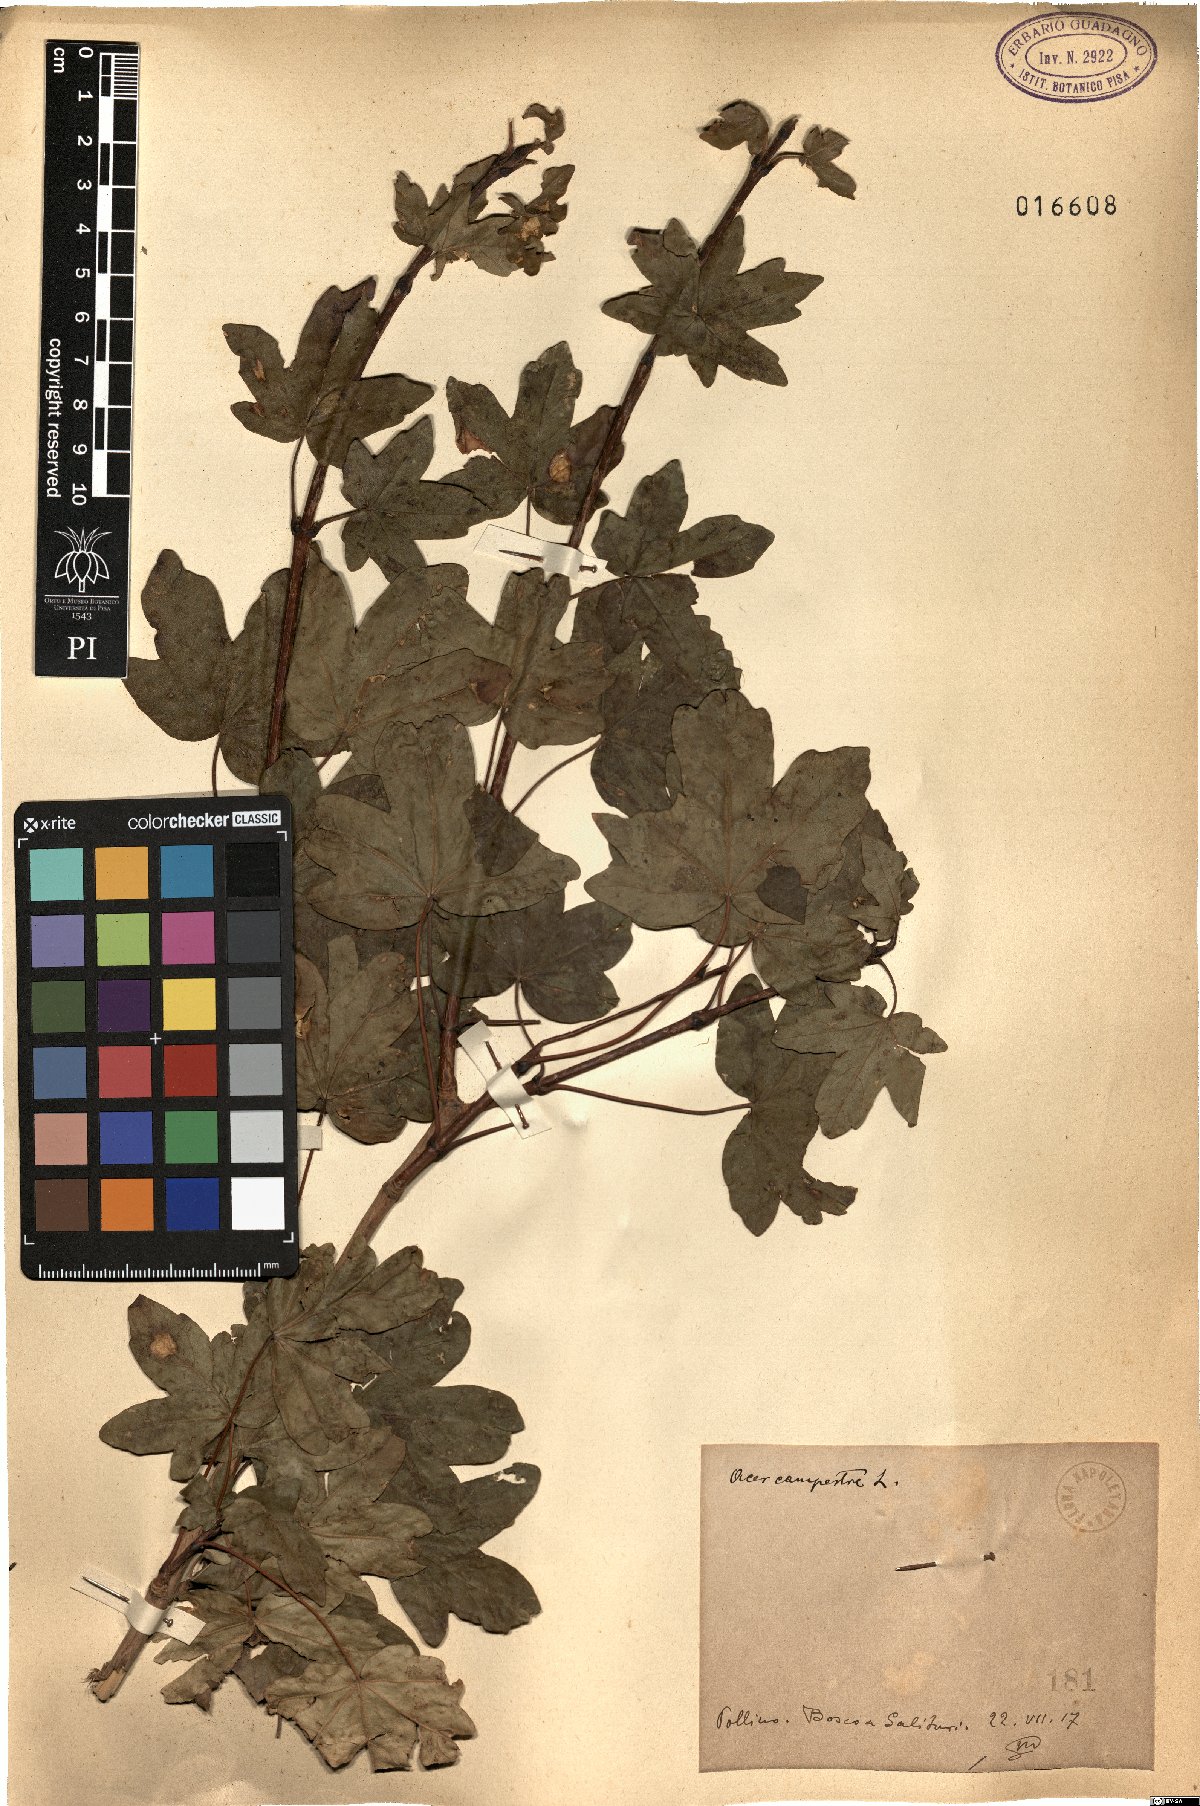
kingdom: Plantae
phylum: Tracheophyta
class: Magnoliopsida
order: Sapindales
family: Sapindaceae
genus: Acer
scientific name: Acer campestre
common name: Field maple
